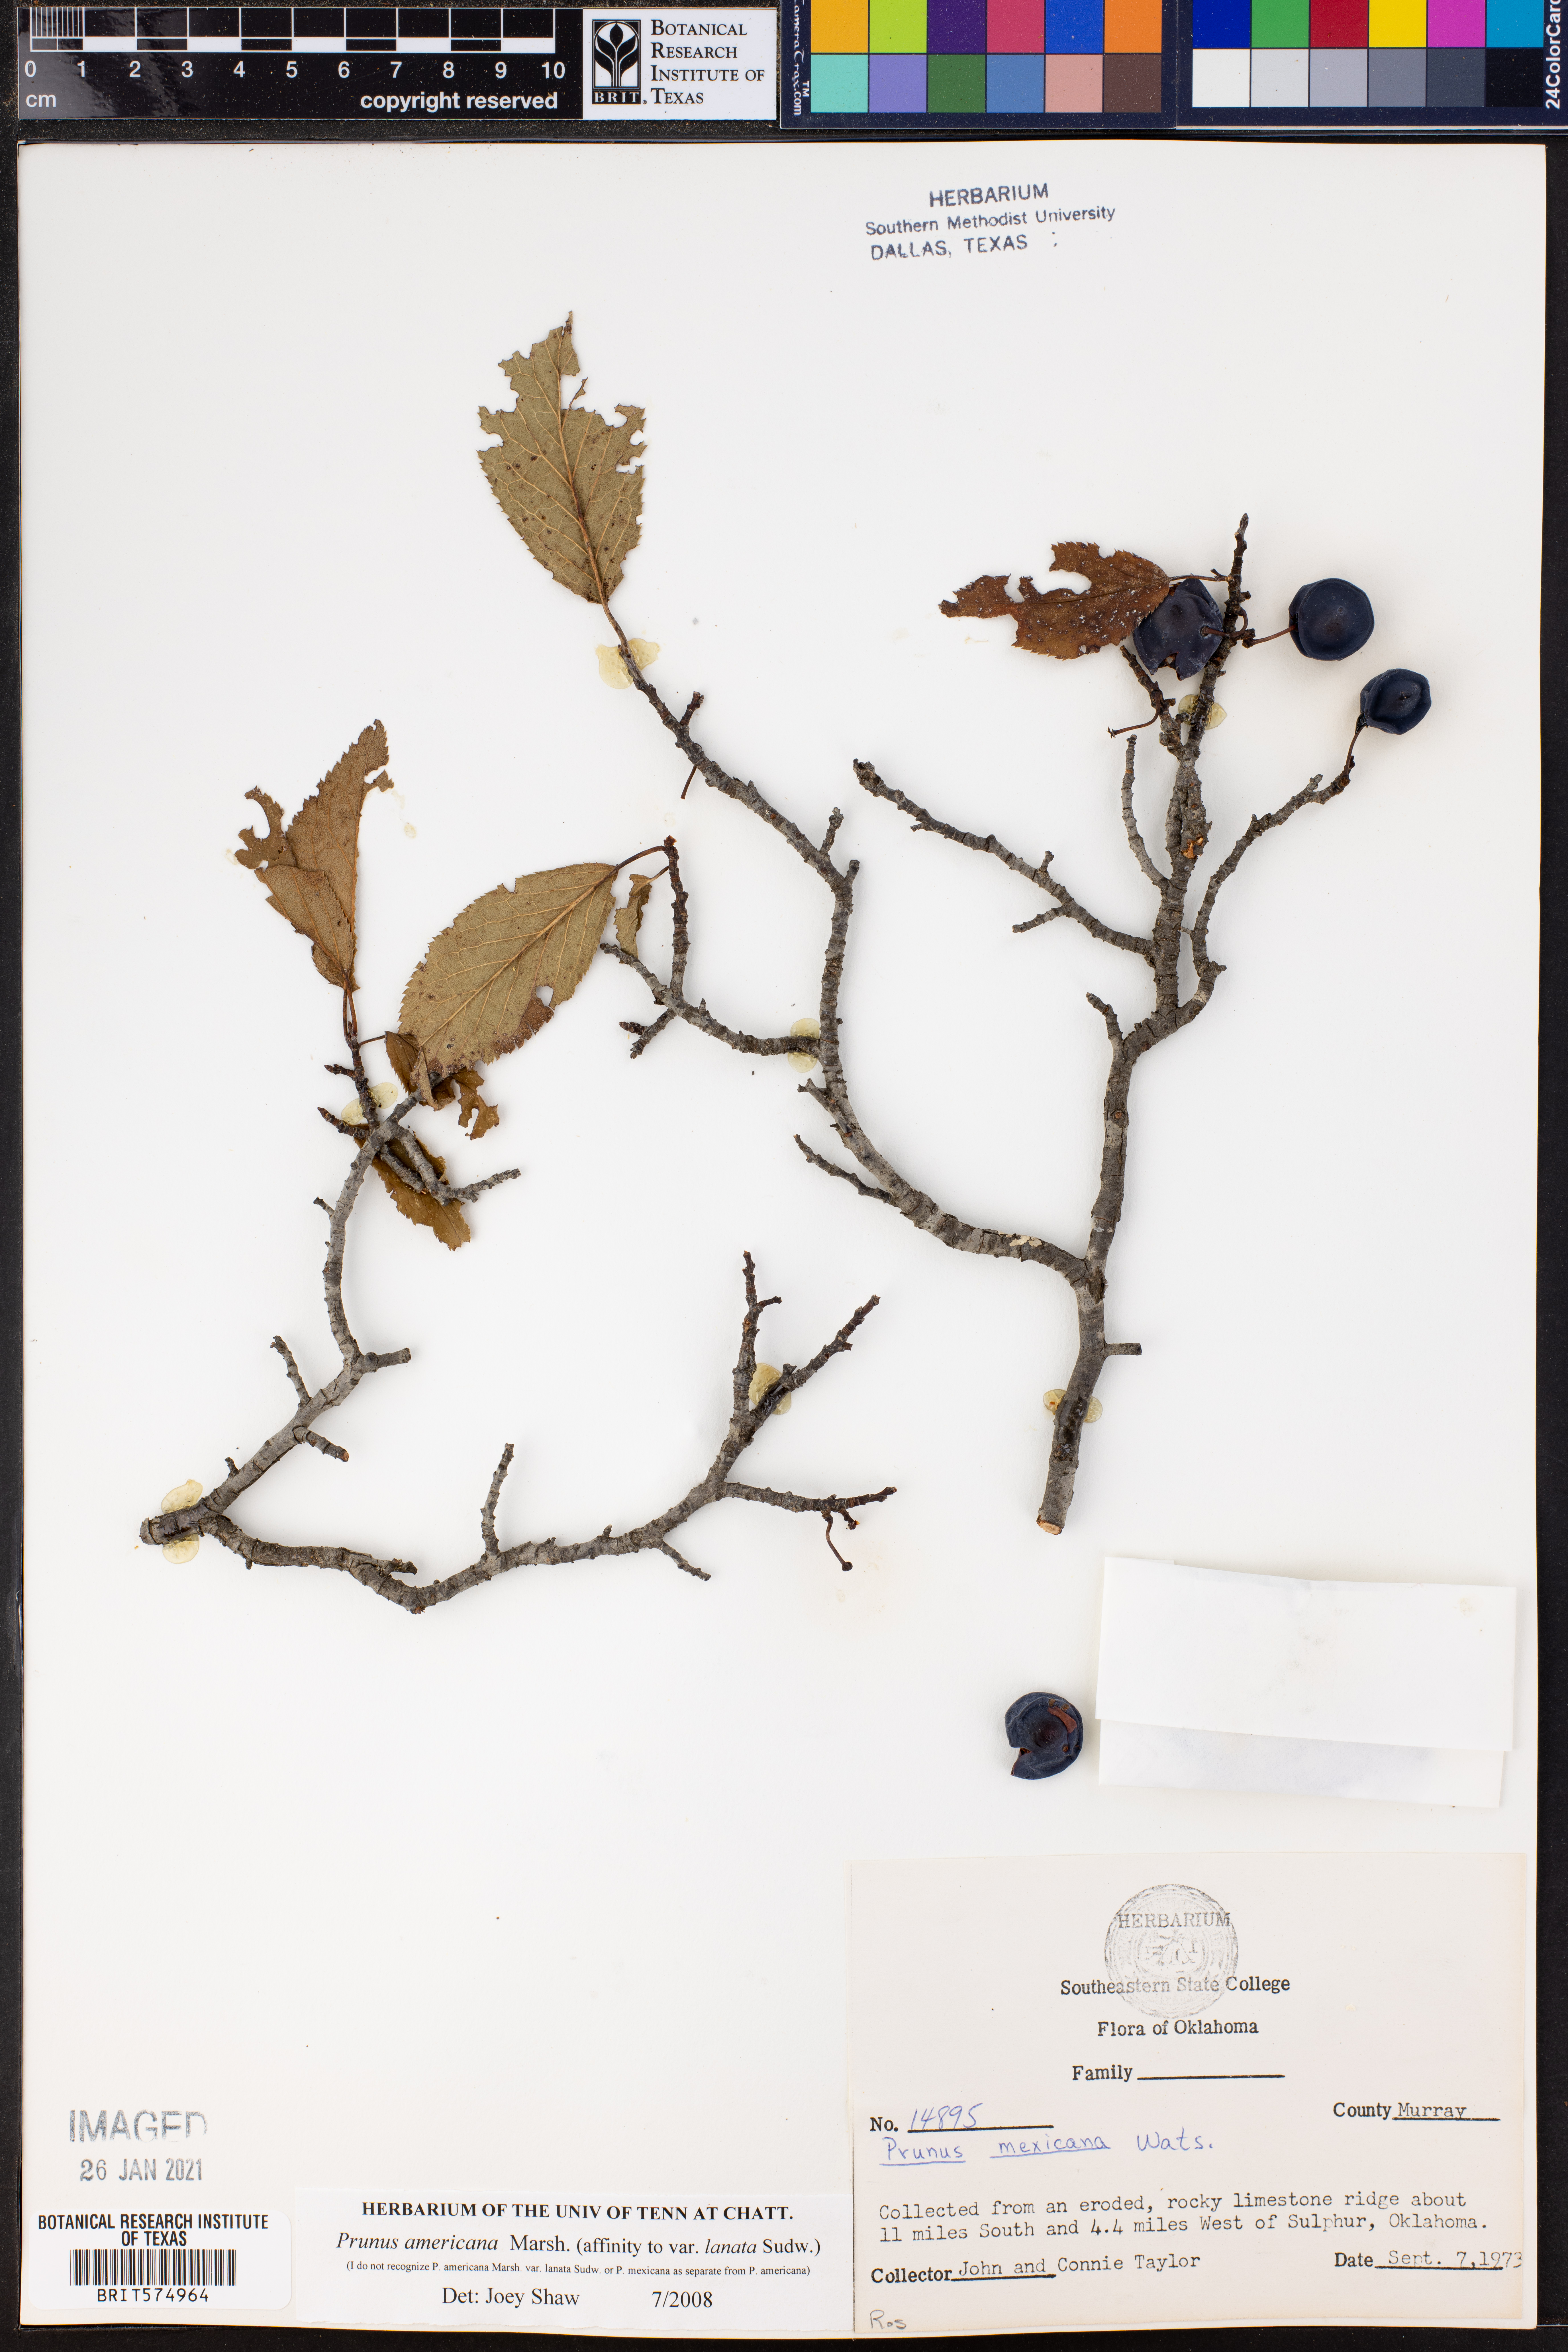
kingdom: Plantae
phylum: Tracheophyta
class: Magnoliopsida
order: Rosales
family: Rosaceae
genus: Prunus
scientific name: Prunus americana
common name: American plum
